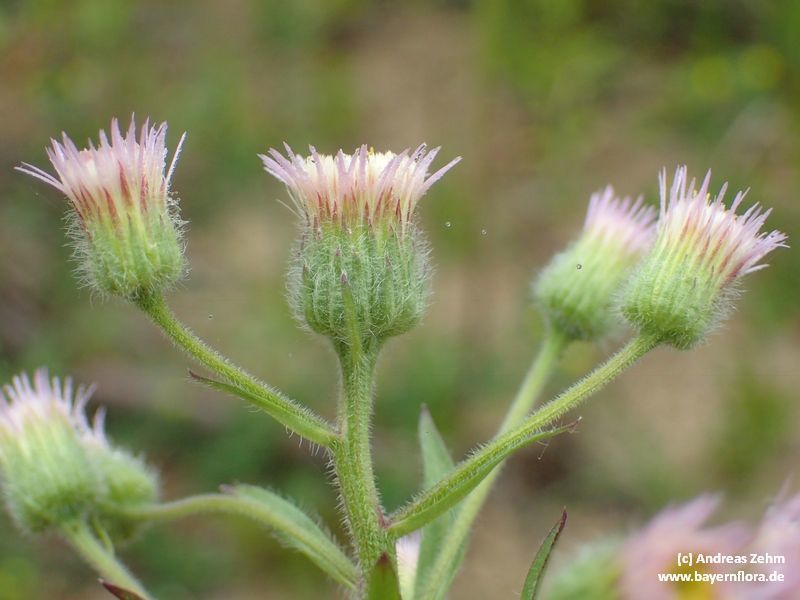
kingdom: Plantae
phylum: Tracheophyta
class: Magnoliopsida
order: Asterales
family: Asteraceae
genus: Erigeron
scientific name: Erigeron acris
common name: Blue fleabane
